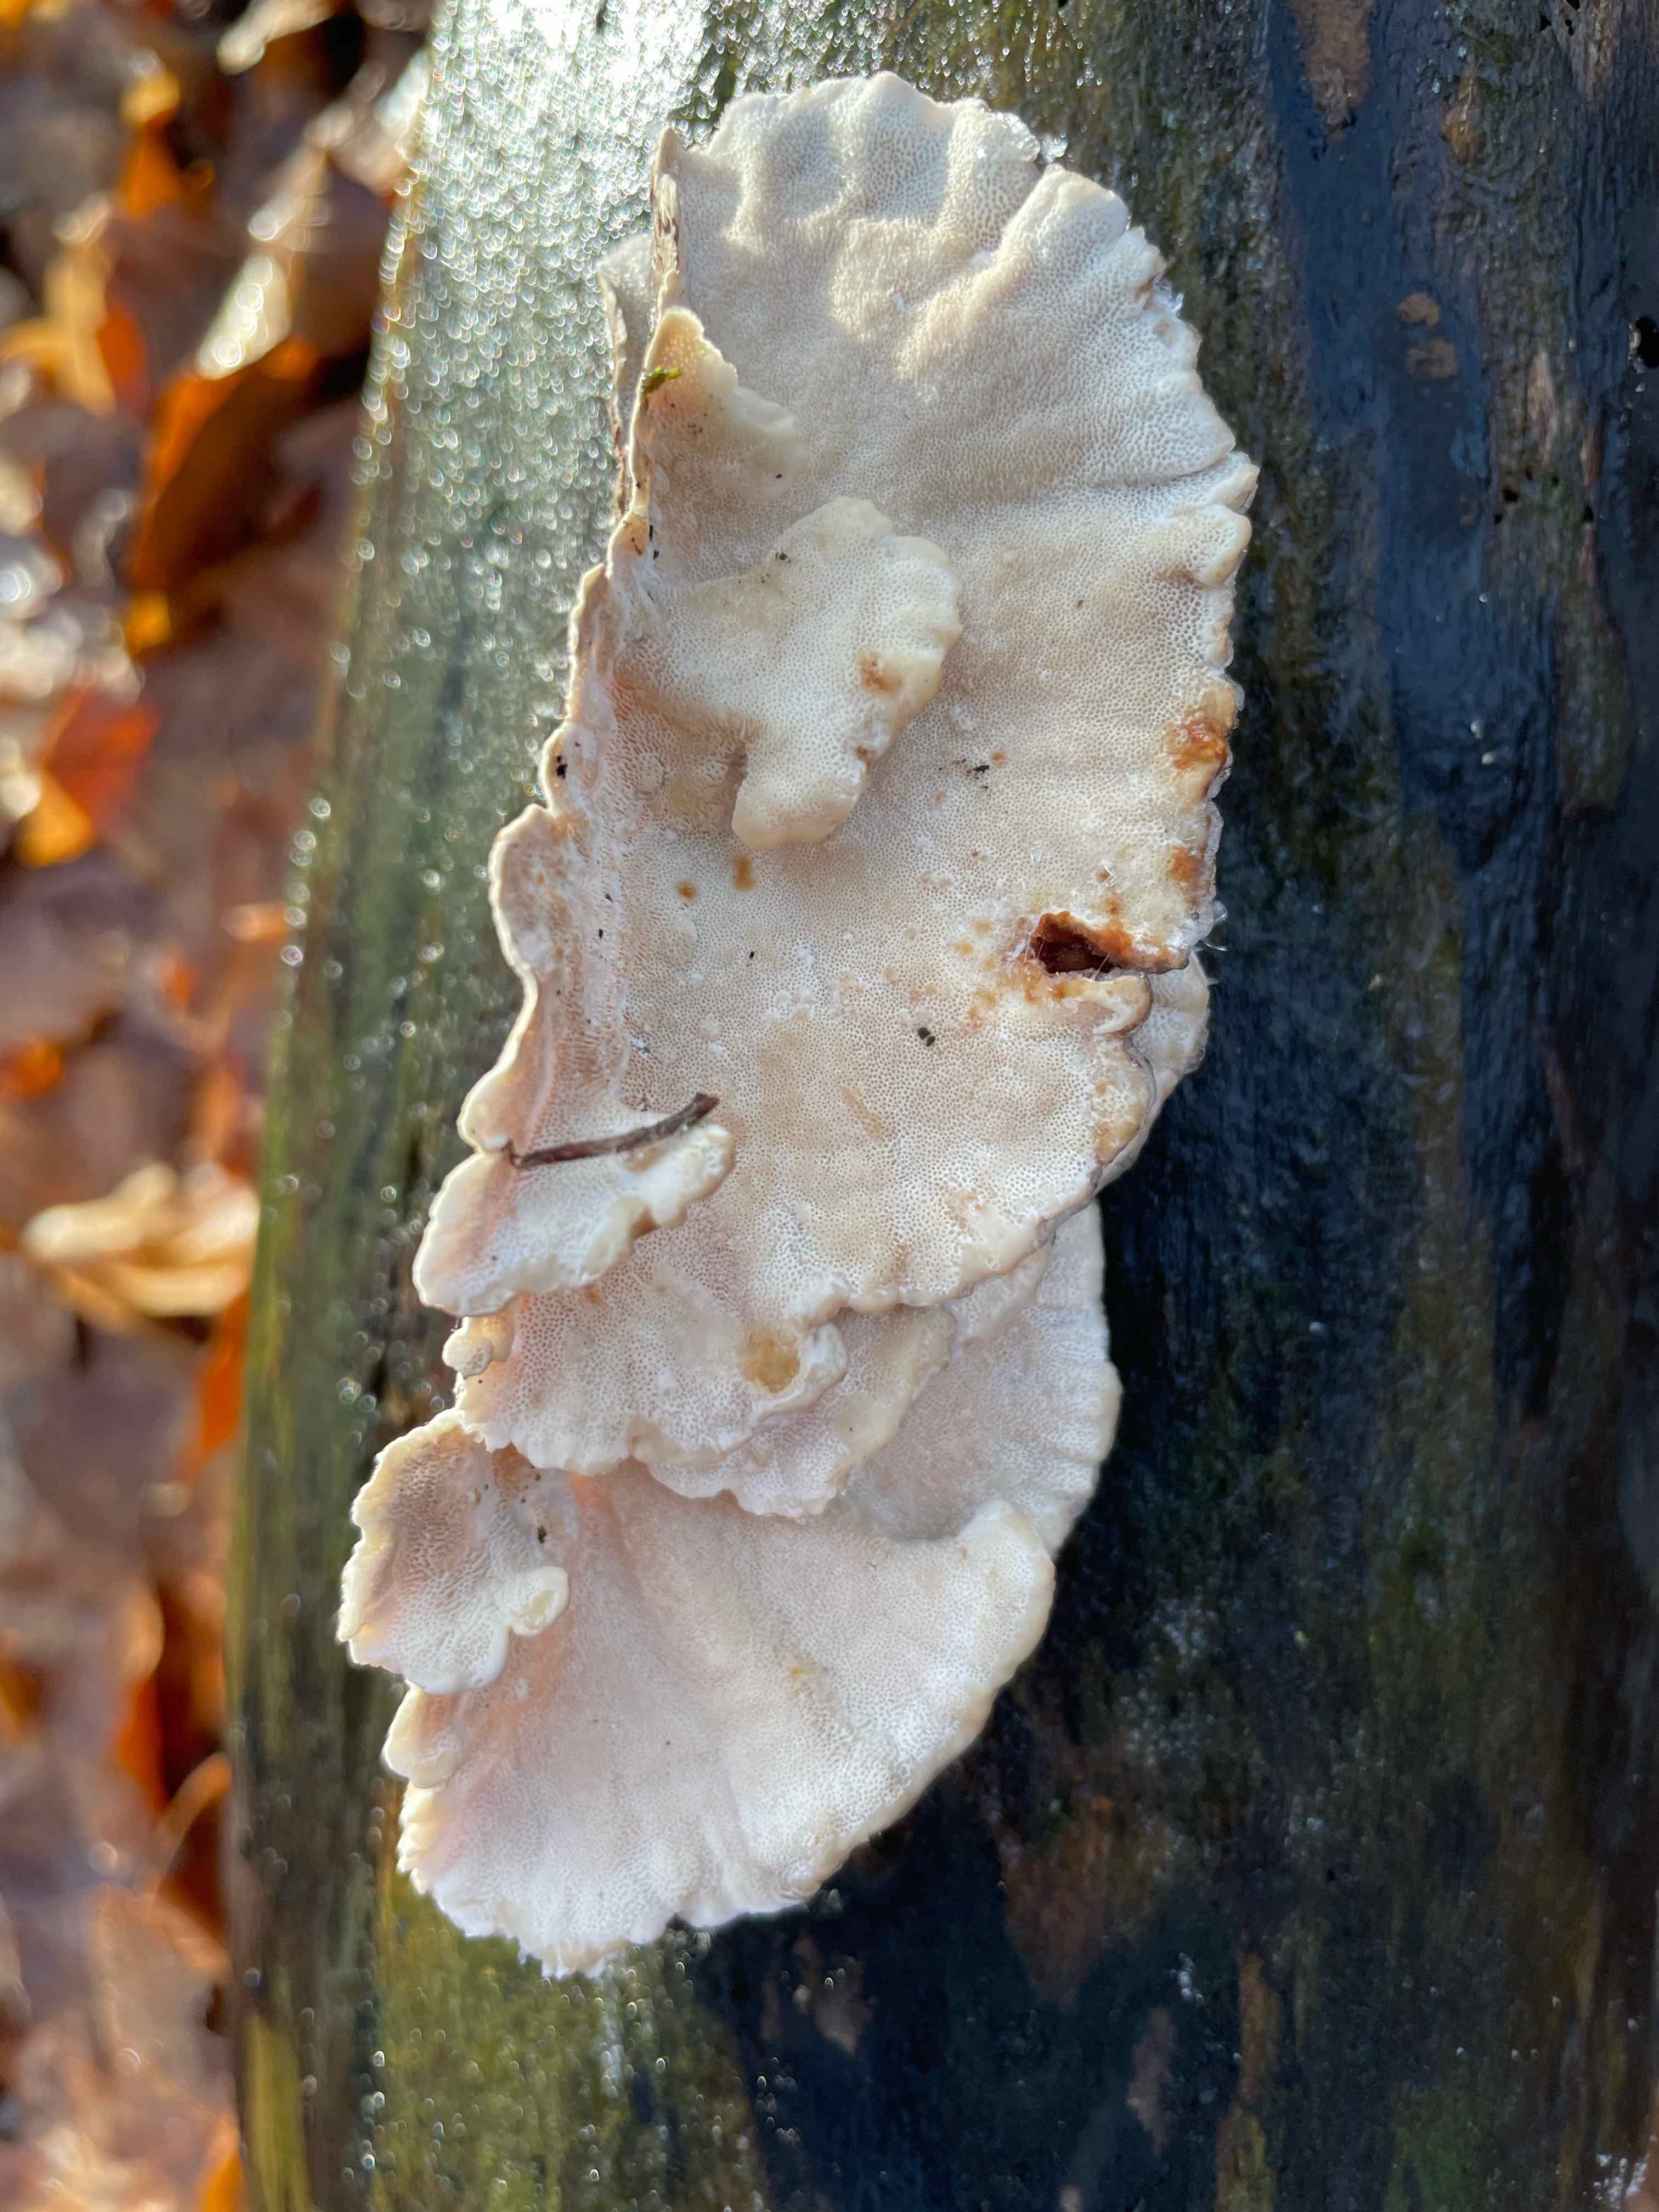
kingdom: Fungi
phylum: Basidiomycota
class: Agaricomycetes
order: Polyporales
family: Polyporaceae
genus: Trametes
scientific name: Trametes versicolor
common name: broget læderporesvamp
